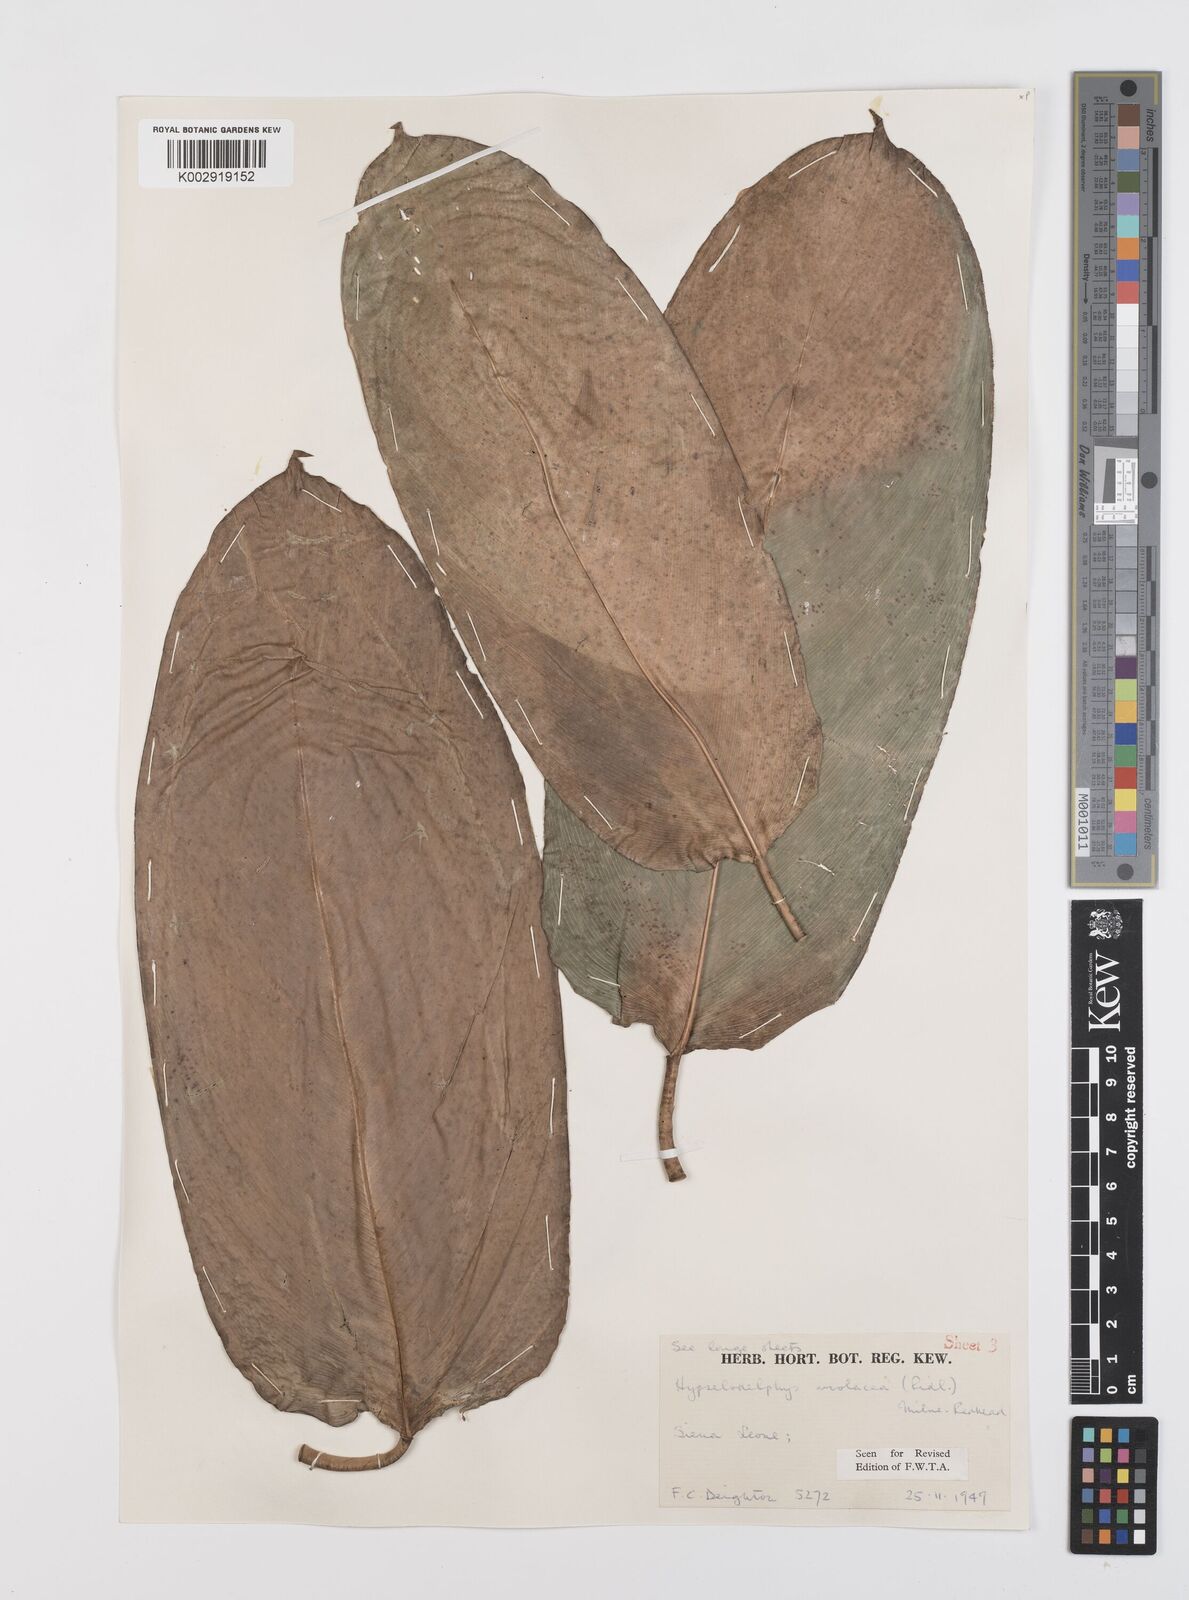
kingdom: Plantae
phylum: Tracheophyta
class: Liliopsida
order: Zingiberales
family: Marantaceae
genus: Hypselodelphys
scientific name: Hypselodelphys violacea
